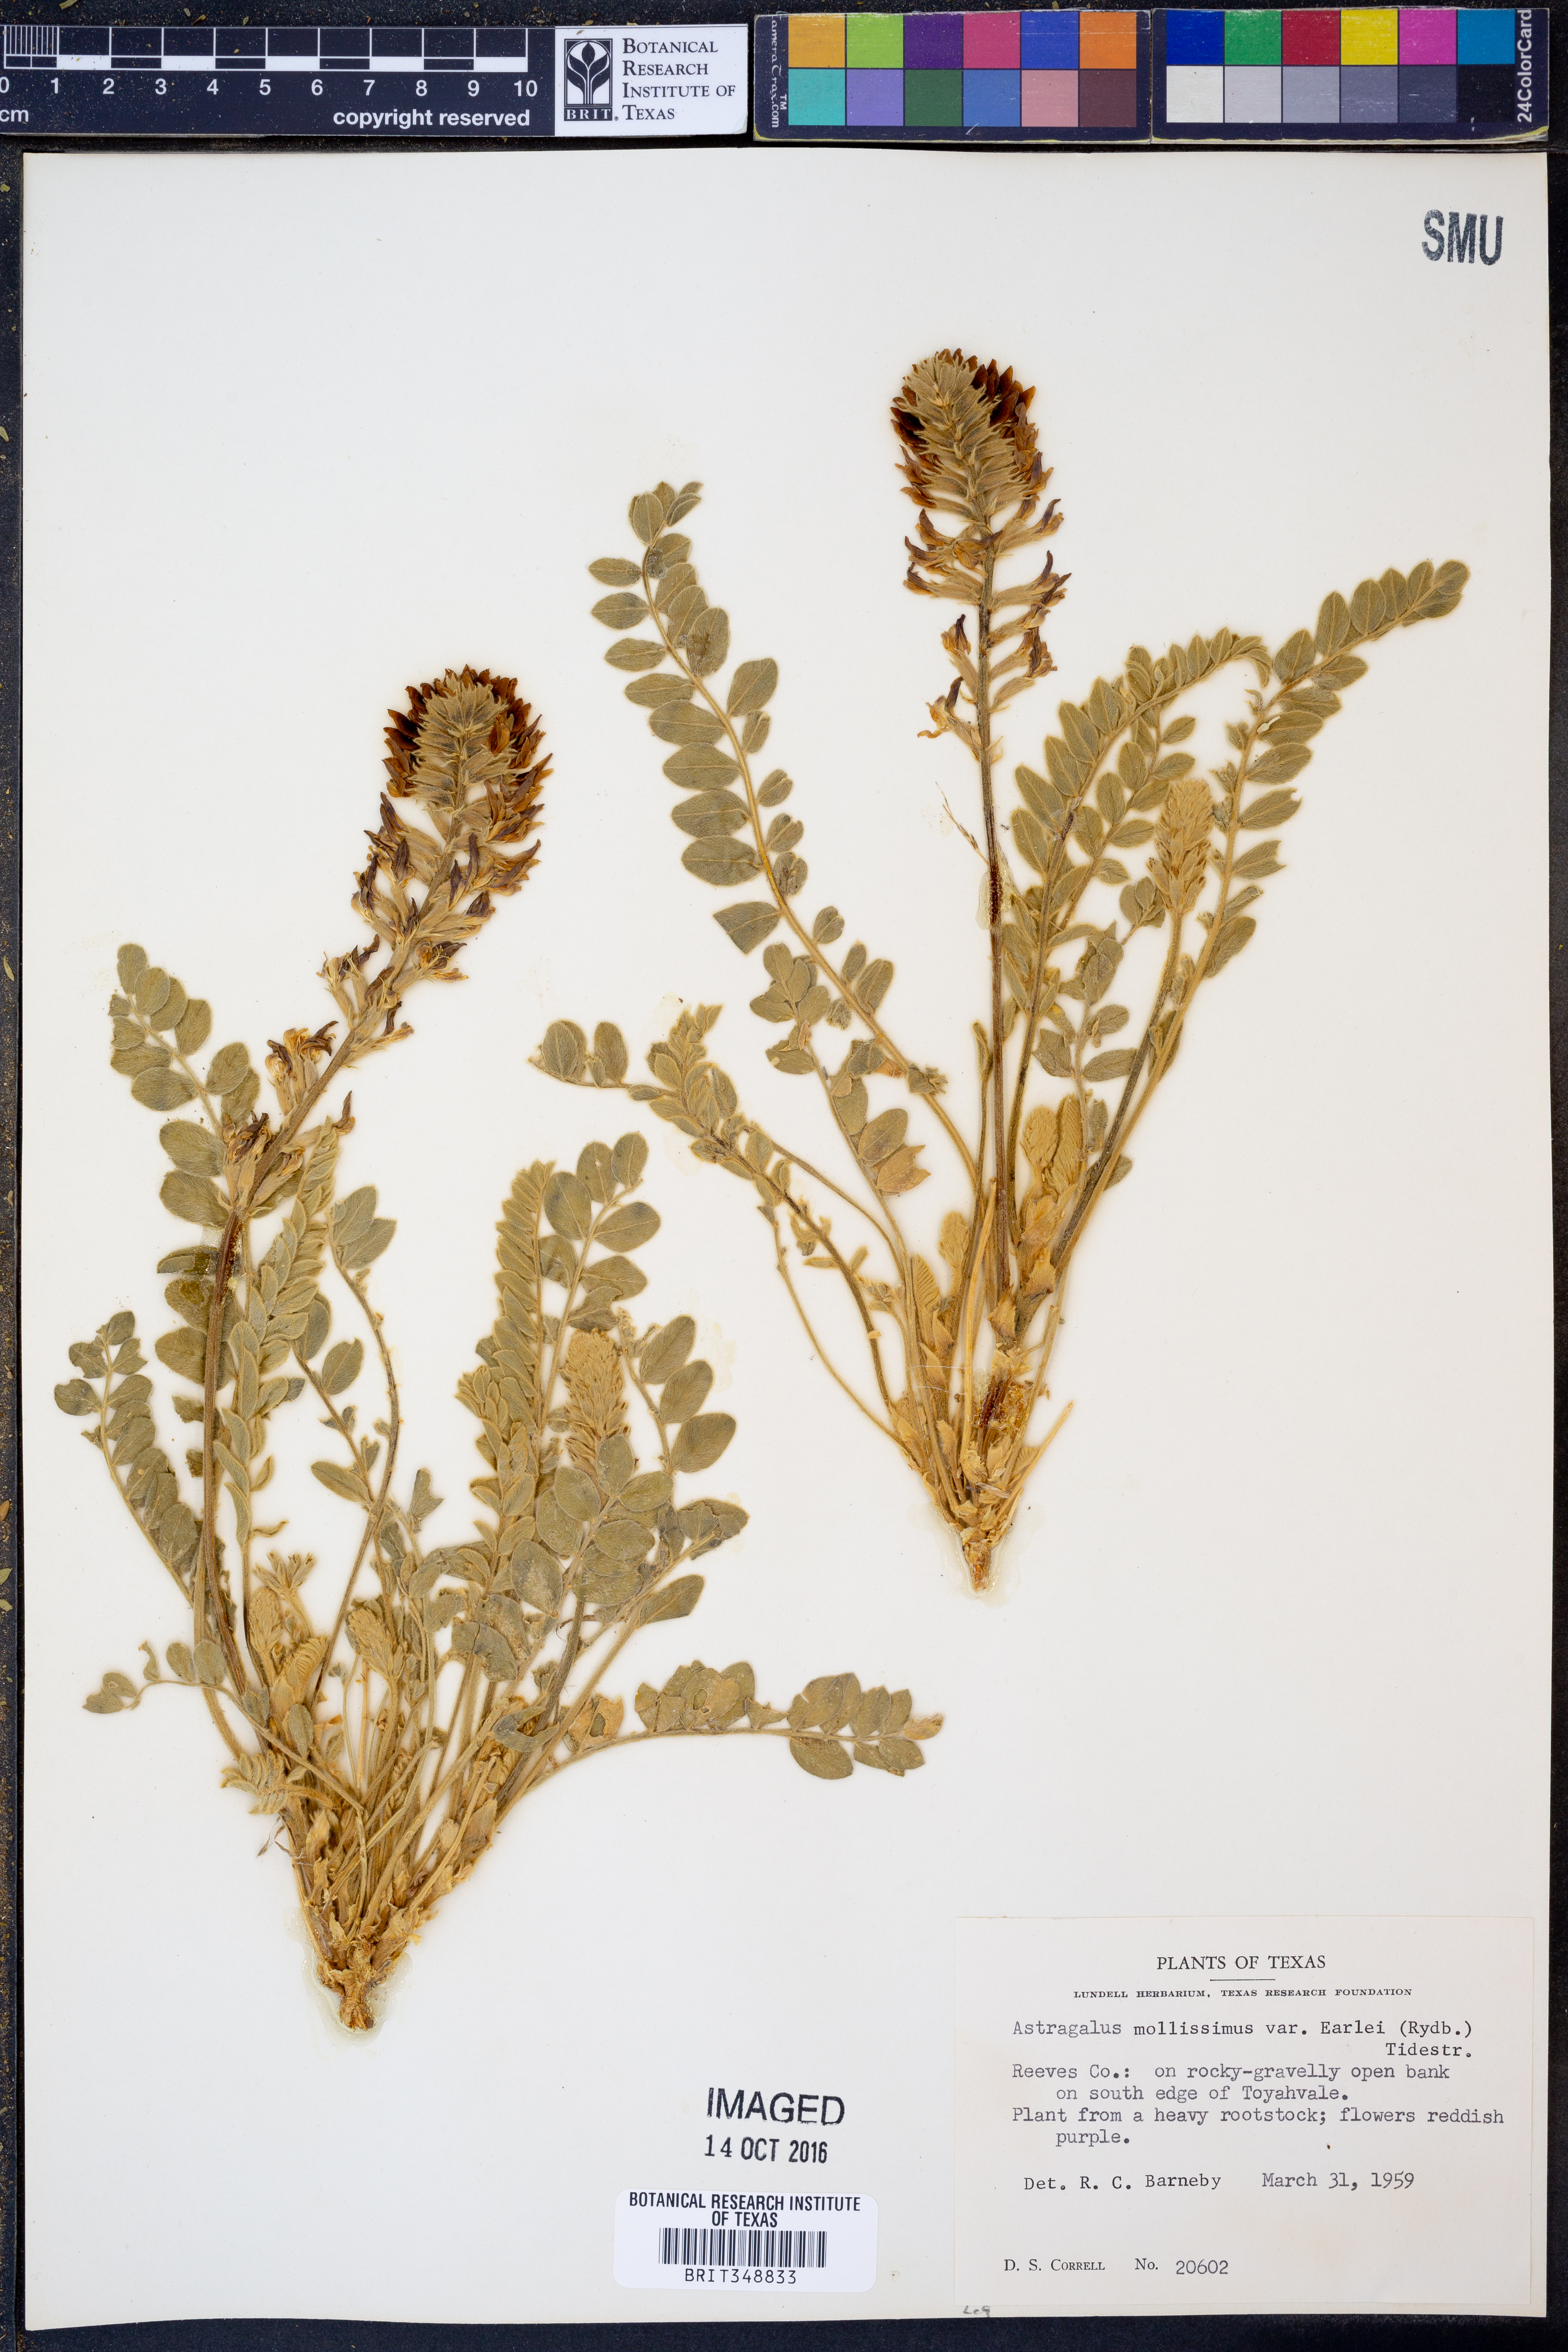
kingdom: Plantae
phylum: Tracheophyta
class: Magnoliopsida
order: Fabales
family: Fabaceae
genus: Astragalus
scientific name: Astragalus mollissimus
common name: Woolly locoweed
